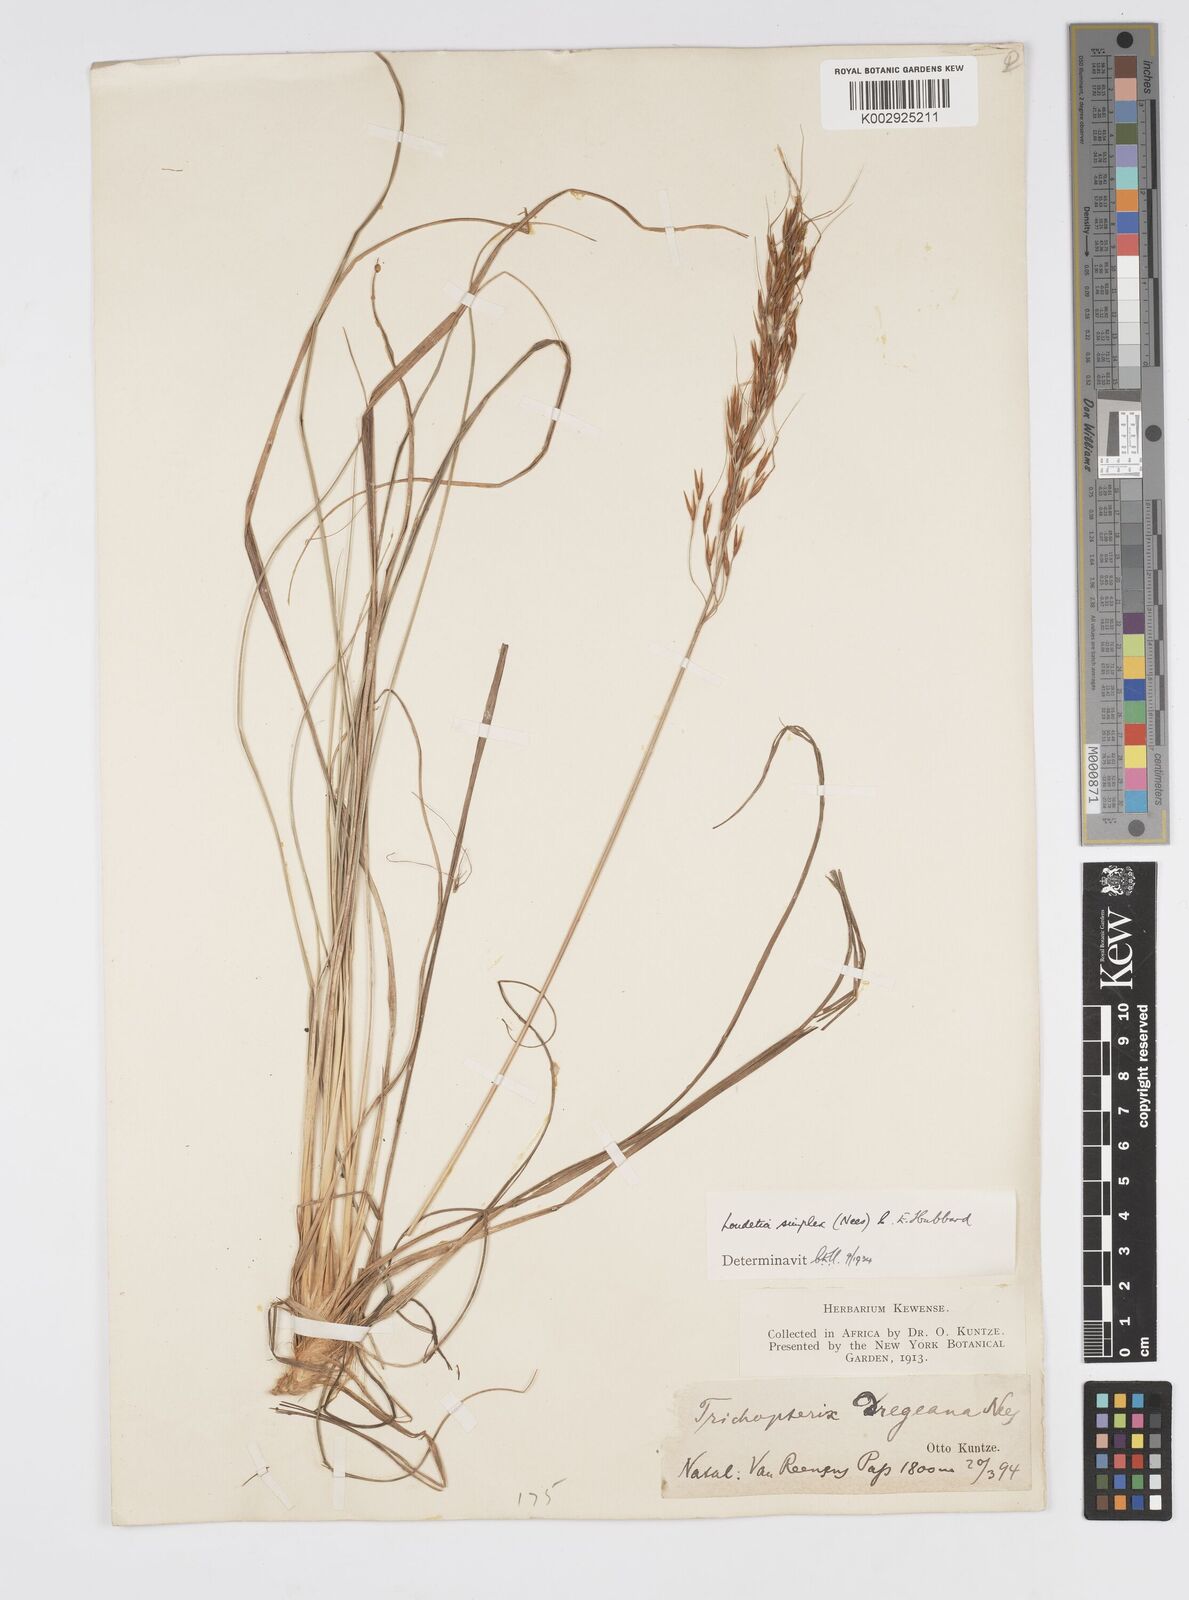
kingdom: Plantae
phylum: Tracheophyta
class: Liliopsida
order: Poales
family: Poaceae
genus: Loudetia
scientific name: Loudetia simplex
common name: Common russet grass
